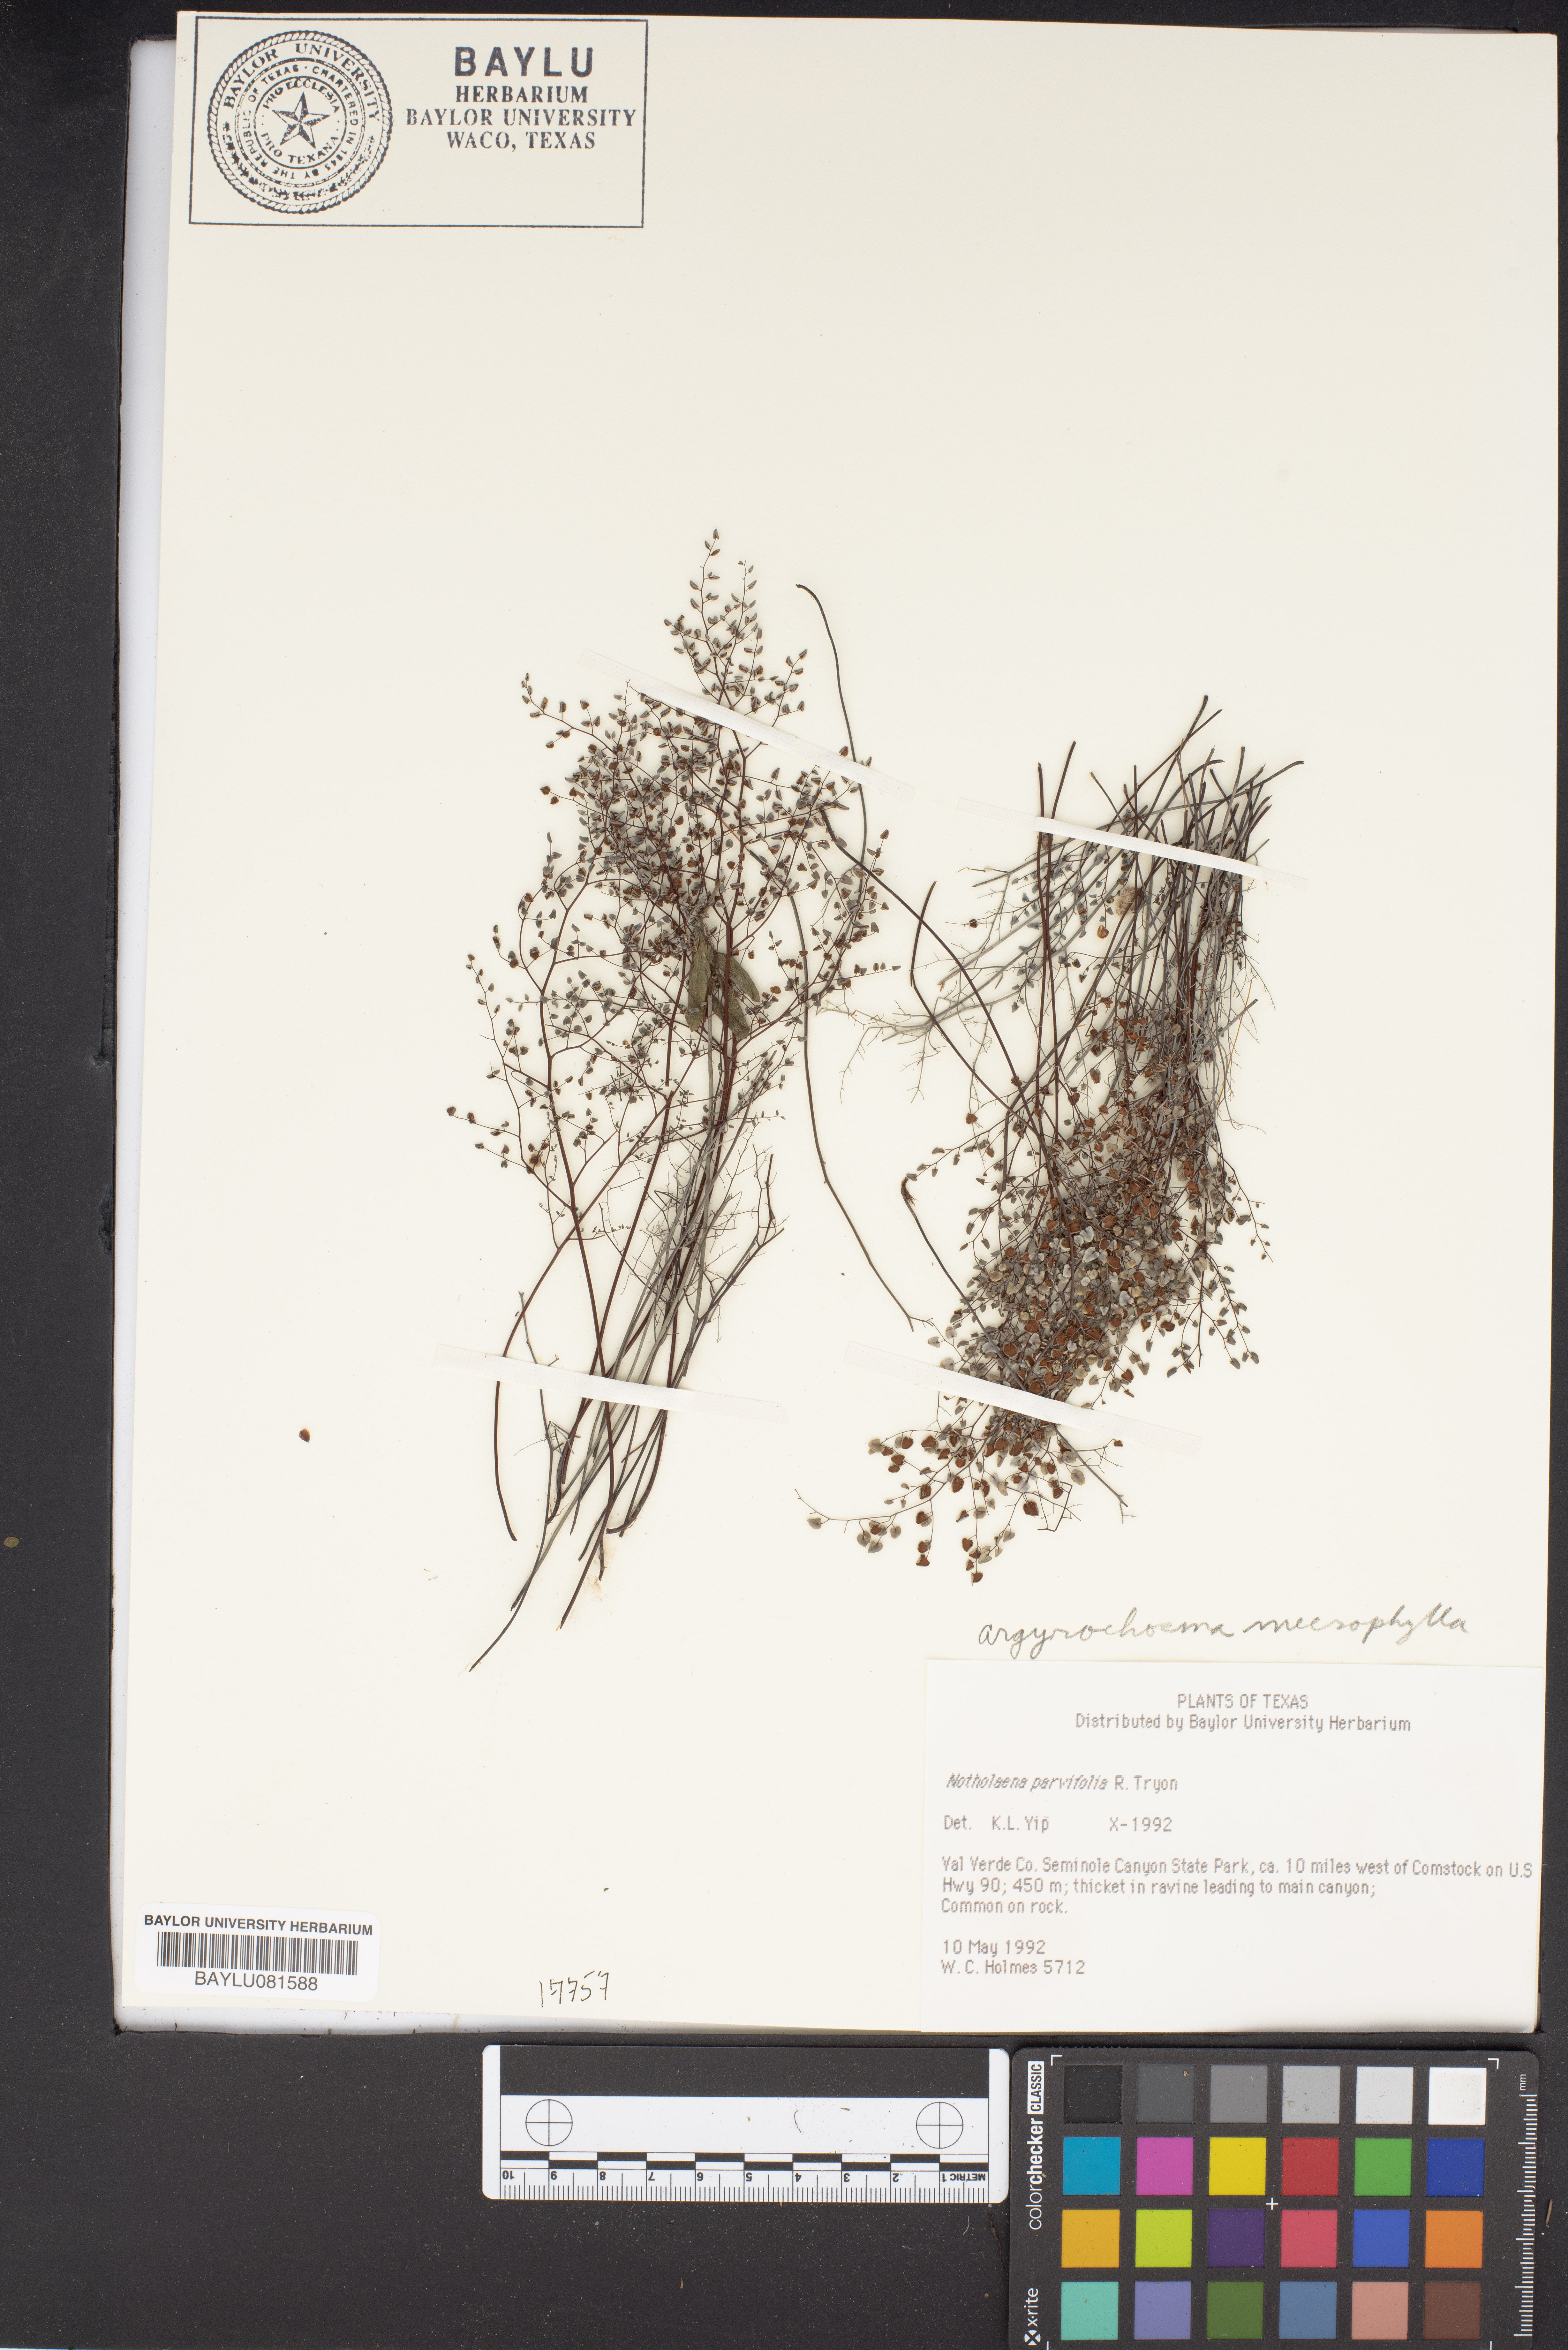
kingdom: Plantae
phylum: Tracheophyta
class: Polypodiopsida
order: Polypodiales
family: Pteridaceae
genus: Argyrochosma
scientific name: Argyrochosma microphylla
